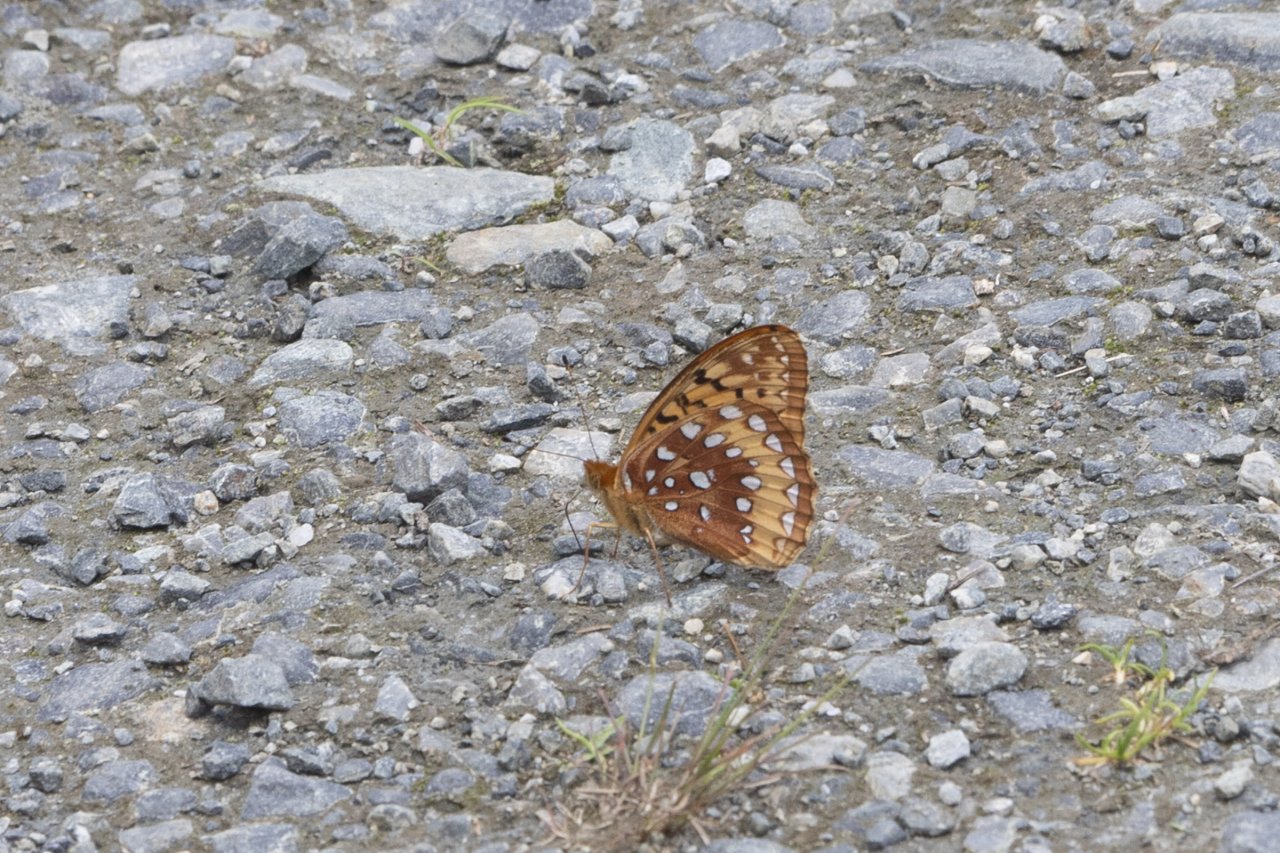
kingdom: Animalia
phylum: Arthropoda
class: Insecta
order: Lepidoptera
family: Nymphalidae
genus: Speyeria
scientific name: Speyeria cybele
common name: Great Spangled Fritillary
